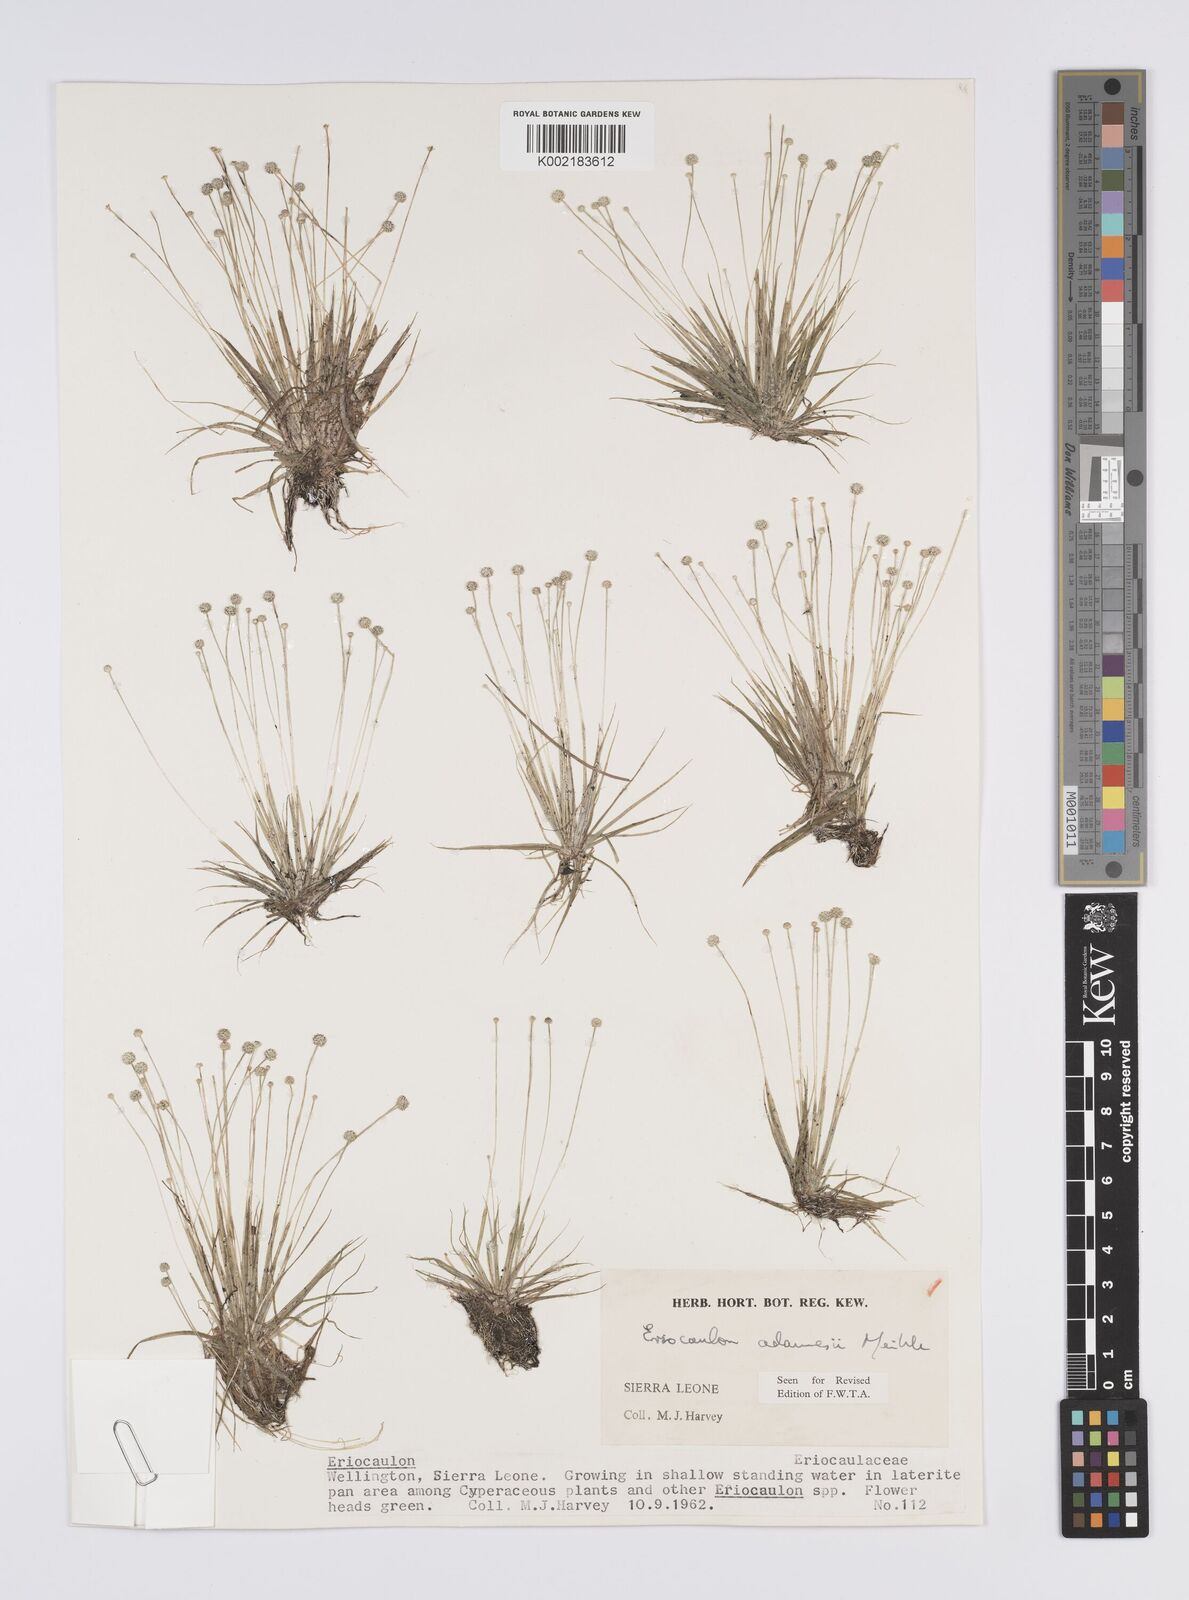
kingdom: Plantae
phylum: Tracheophyta
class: Liliopsida
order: Poales
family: Eriocaulaceae
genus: Eriocaulon
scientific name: Eriocaulon adamesii
